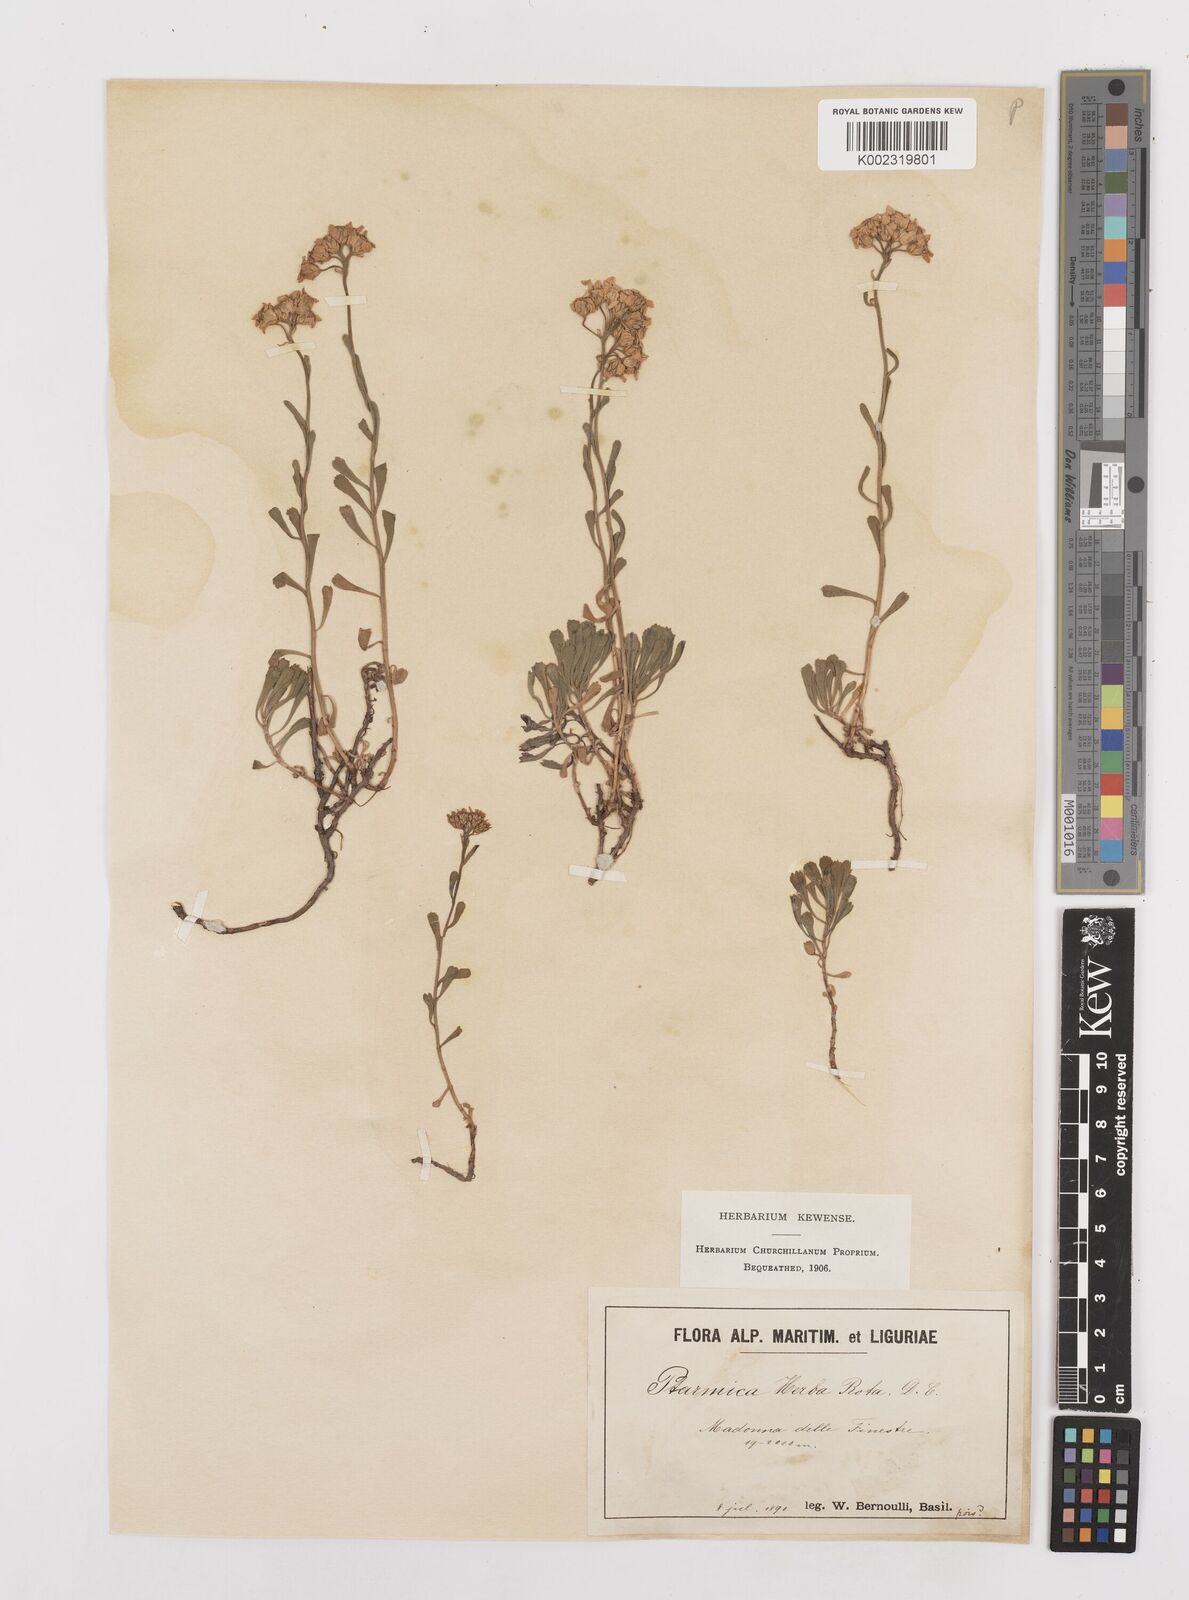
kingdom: Plantae
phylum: Tracheophyta
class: Magnoliopsida
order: Asterales
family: Asteraceae
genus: Achillea
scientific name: Achillea erba-rotta
